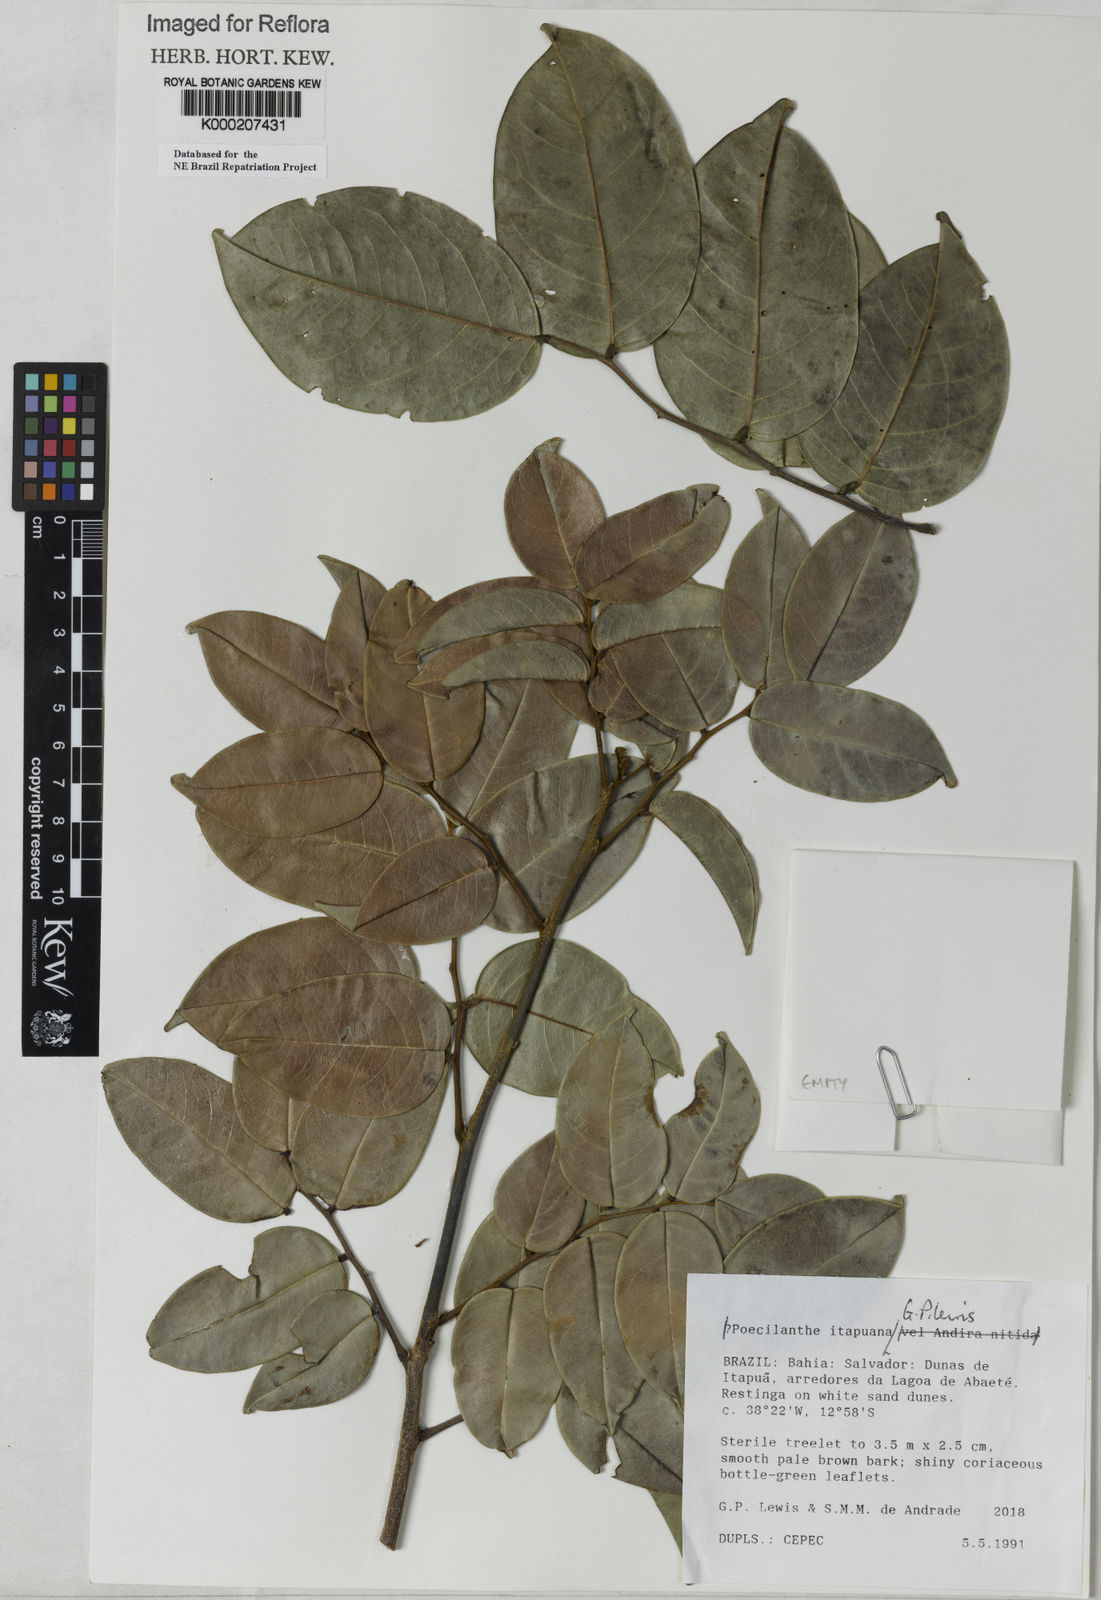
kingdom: Plantae
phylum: Tracheophyta
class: Magnoliopsida
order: Fabales
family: Fabaceae
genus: Poecilanthe
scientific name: Poecilanthe itapuana
